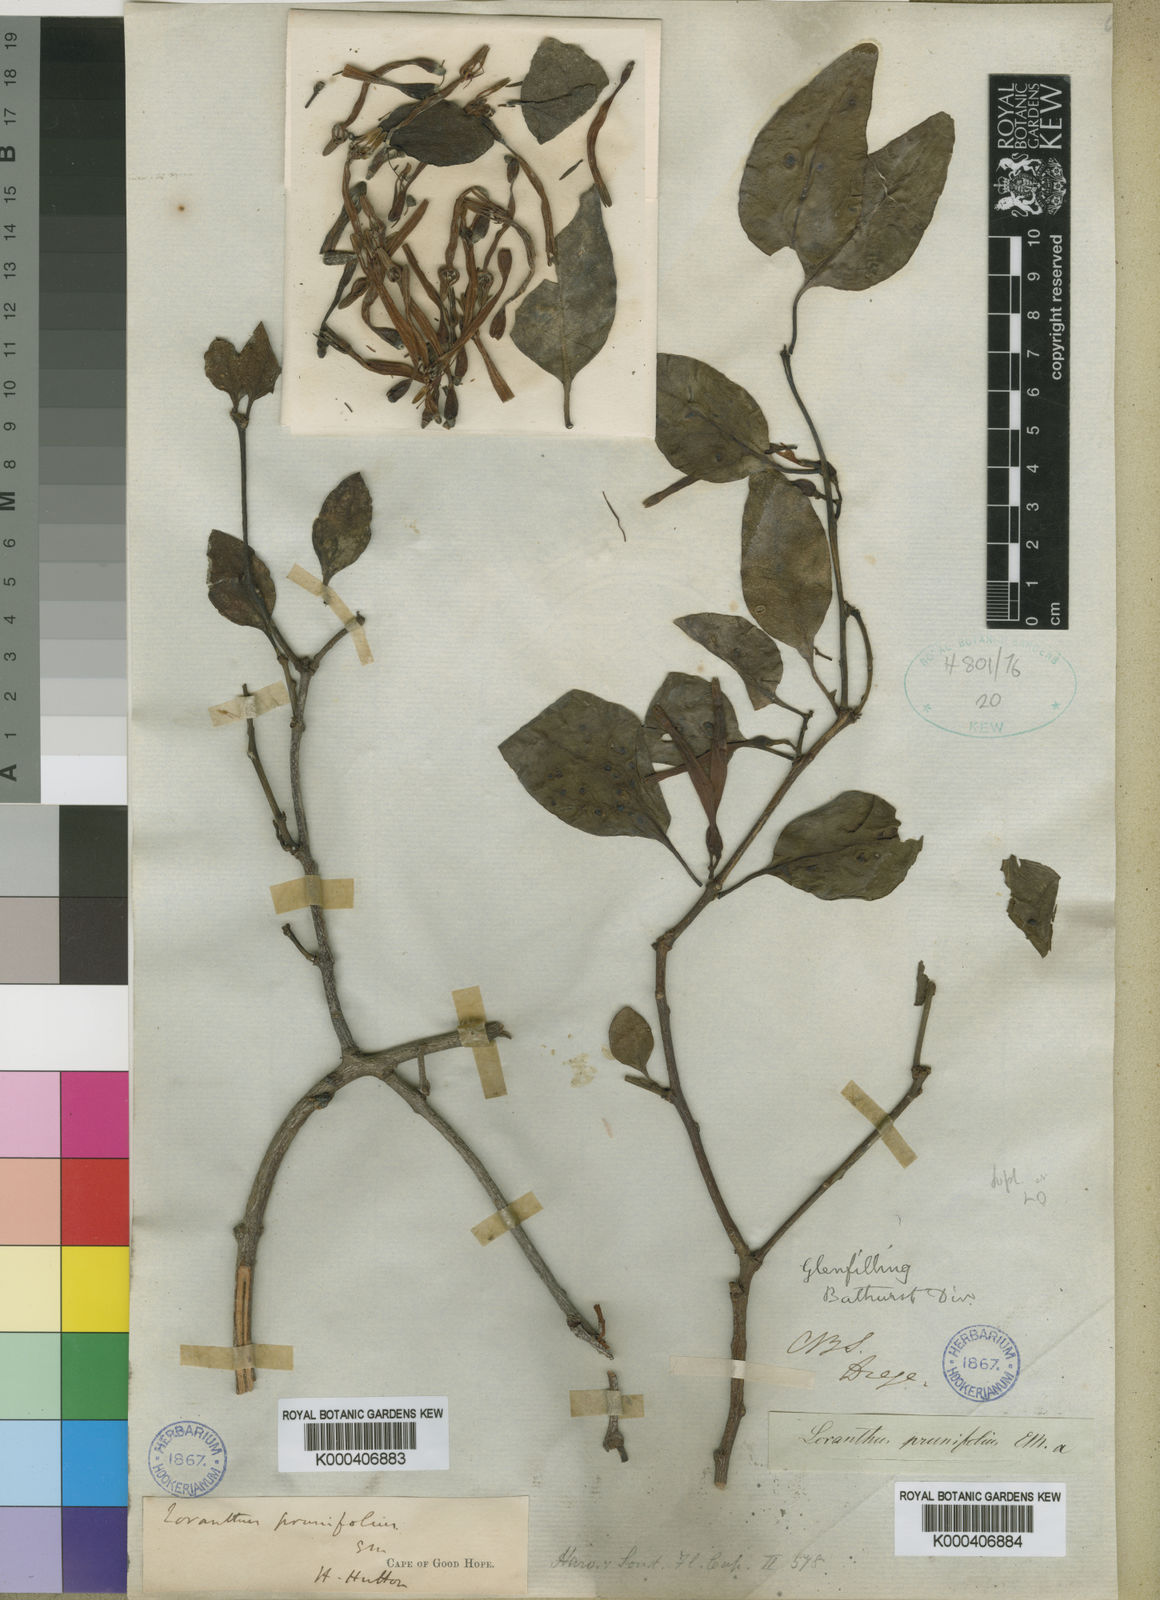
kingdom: Plantae
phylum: Tracheophyta
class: Magnoliopsida
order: Santalales
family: Loranthaceae
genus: Agelanthus
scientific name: Agelanthus prunifolius
